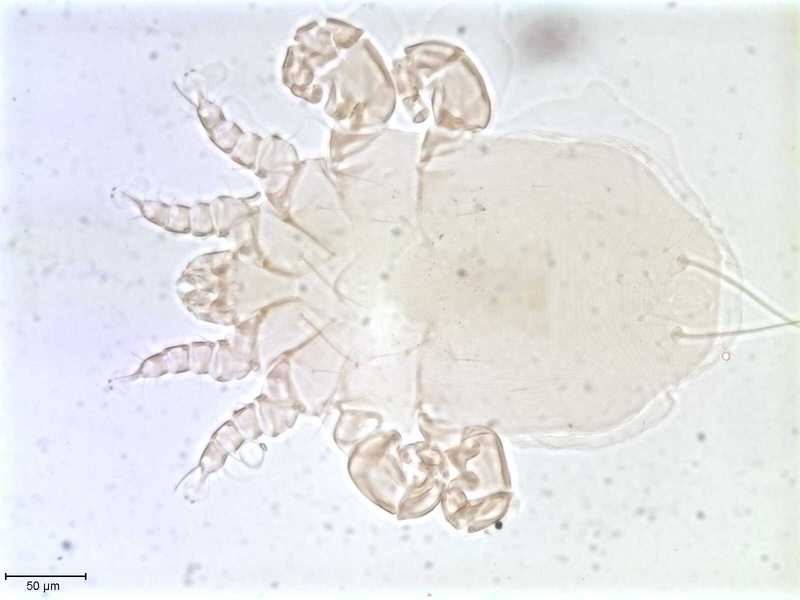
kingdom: Animalia
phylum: Arthropoda
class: Arachnida
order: Sarcoptiformes
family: Myocoptidae
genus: Gliricoptes
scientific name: Gliricoptes
